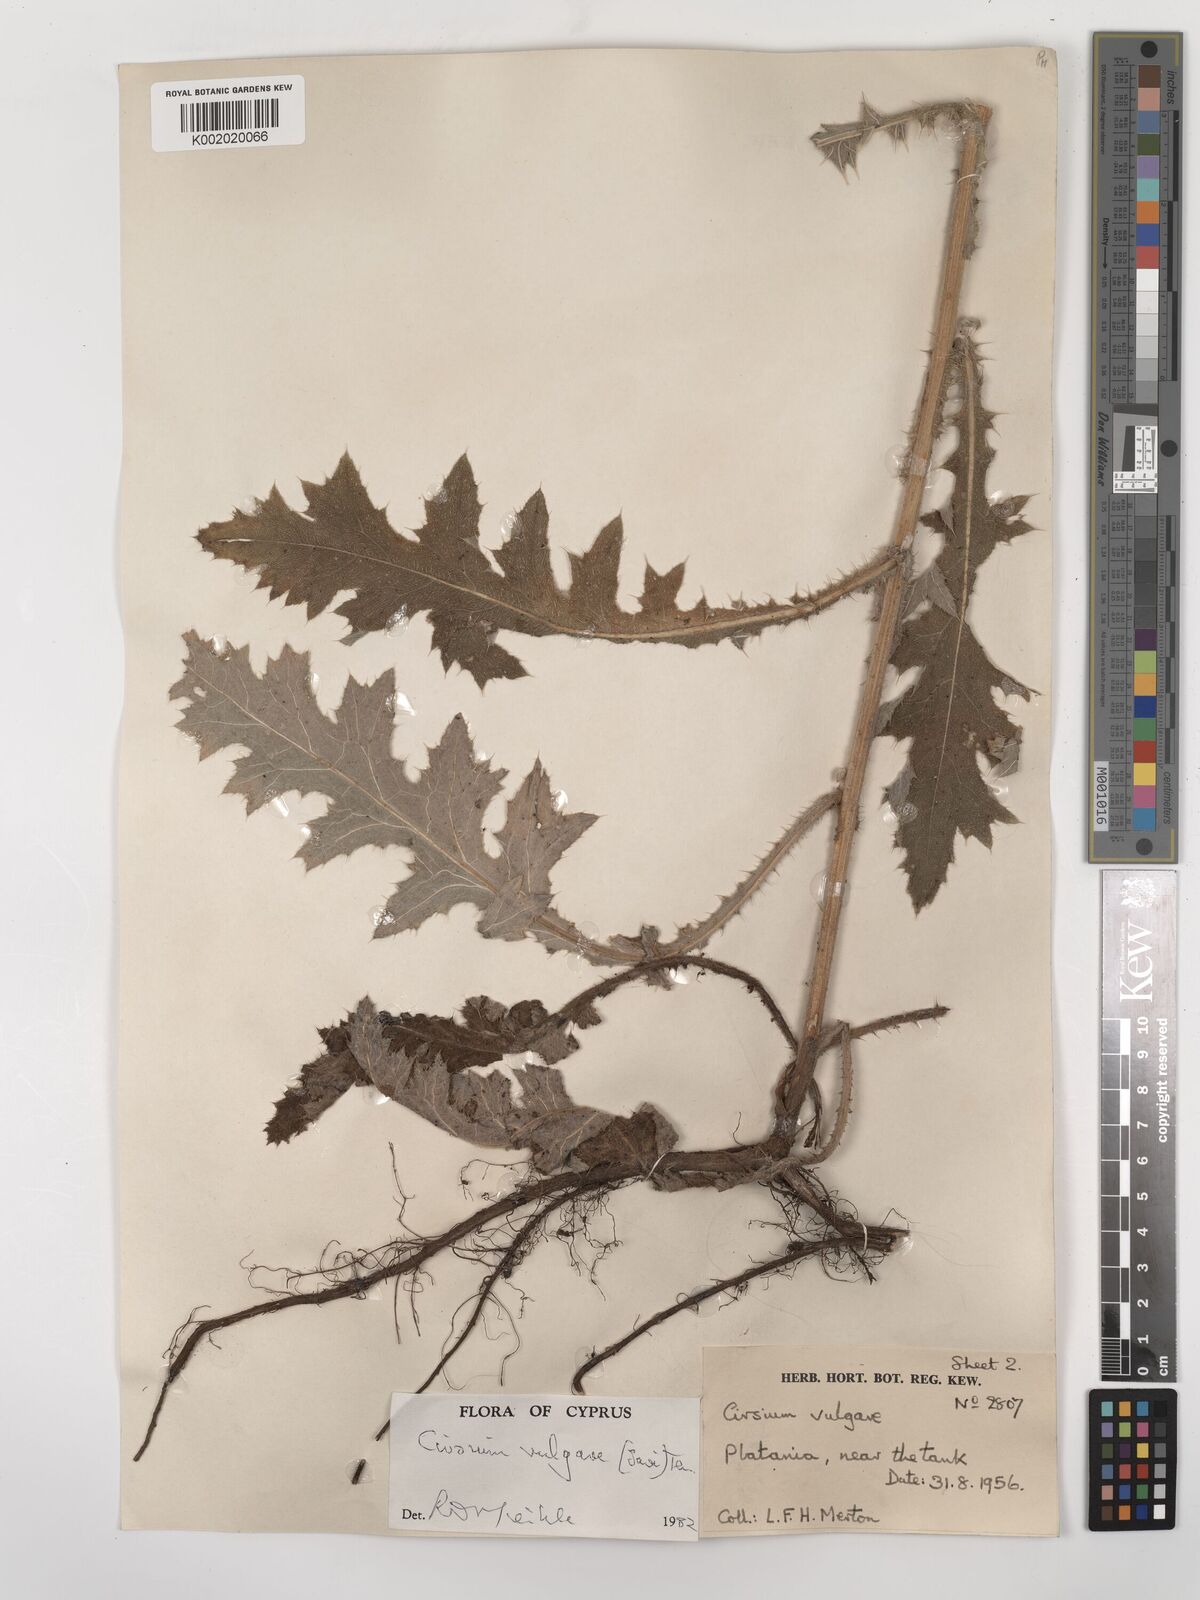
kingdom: Plantae
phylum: Tracheophyta
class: Magnoliopsida
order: Asterales
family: Asteraceae
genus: Cirsium
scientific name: Cirsium vulgare
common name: Bull thistle
